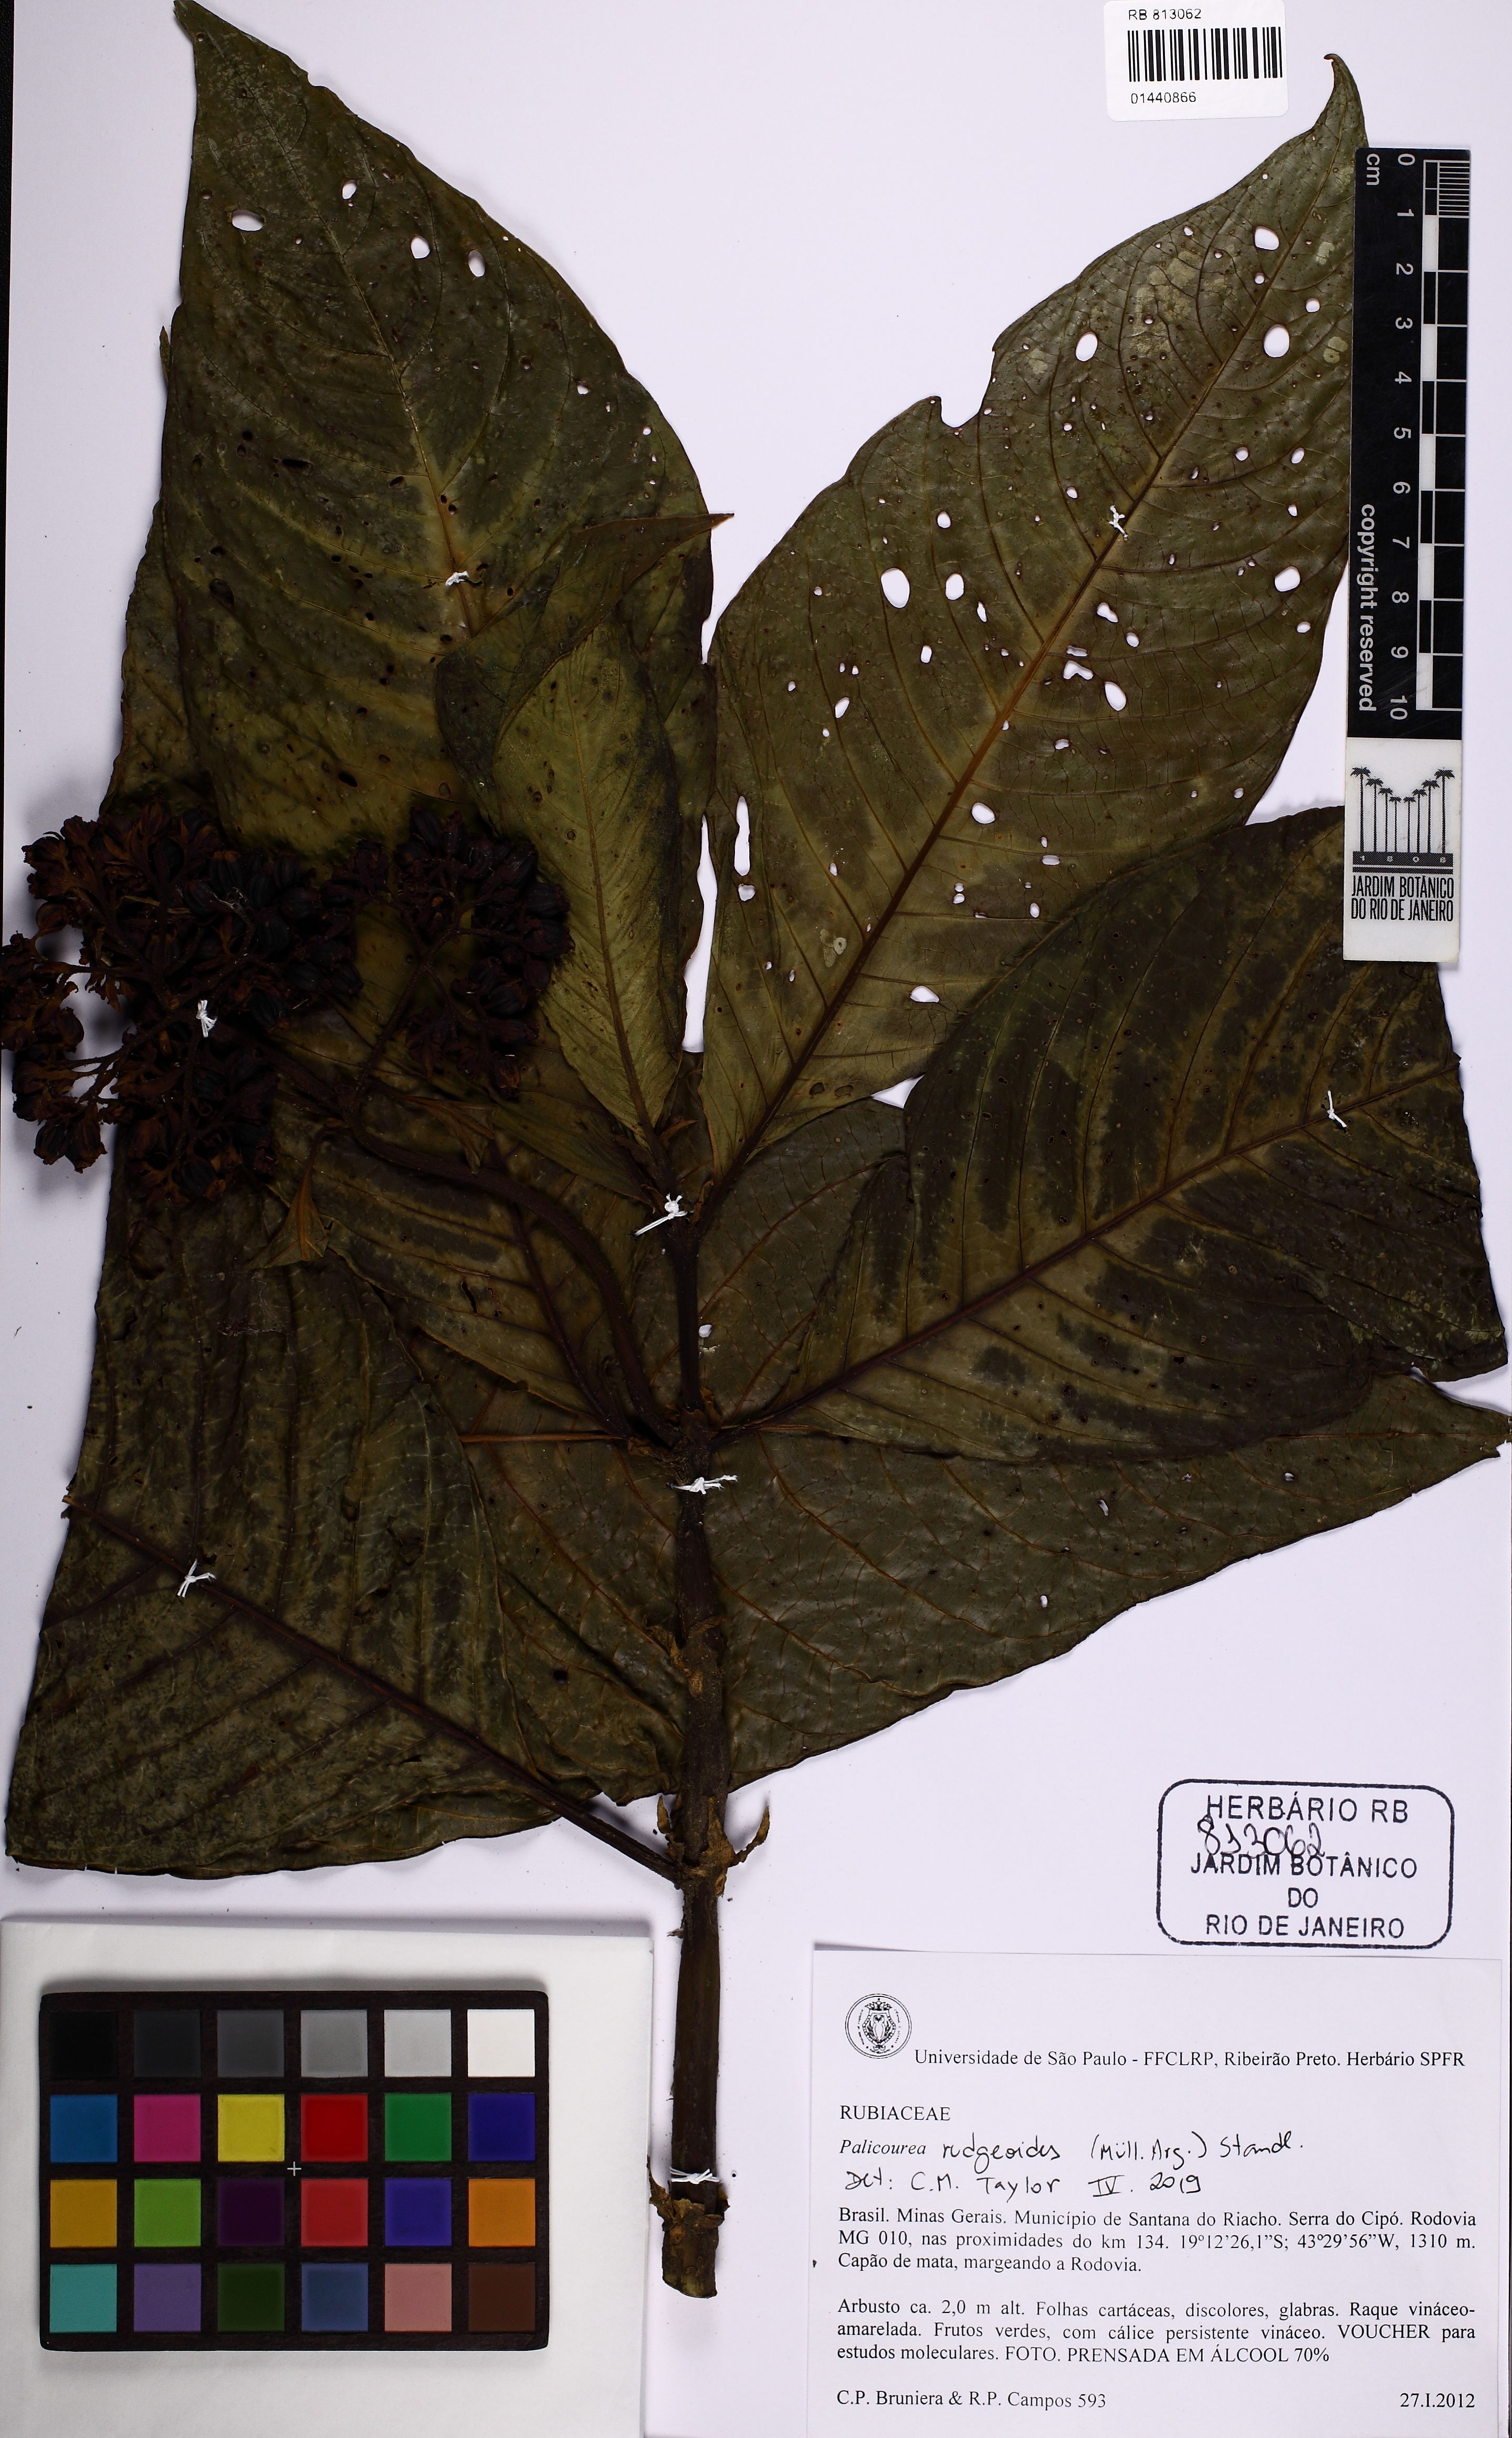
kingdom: Plantae
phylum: Tracheophyta
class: Magnoliopsida
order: Gentianales
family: Rubiaceae
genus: Palicourea
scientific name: Palicourea rudgeoides
